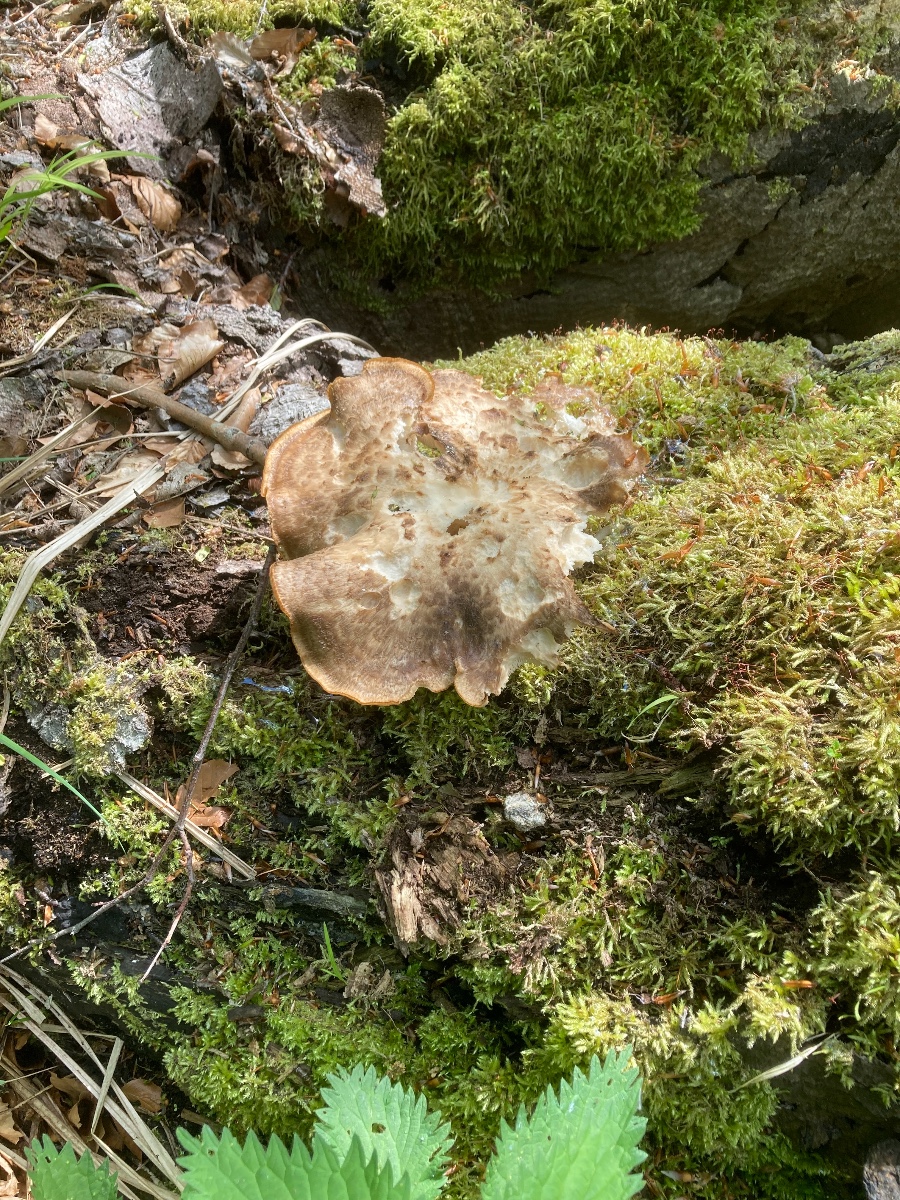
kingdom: Fungi
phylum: Basidiomycota
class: Agaricomycetes
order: Polyporales
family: Polyporaceae
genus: Polyporus
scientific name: Polyporus tuberaster
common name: knoldet stilkporesvamp
